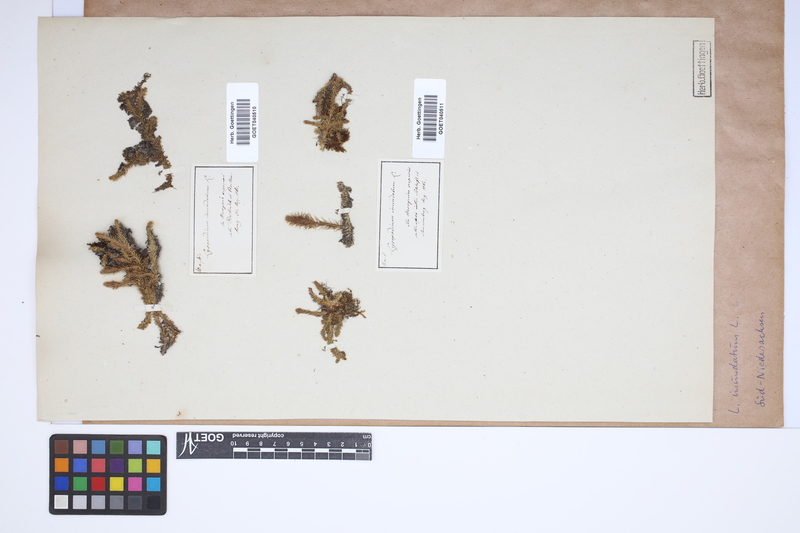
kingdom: Plantae
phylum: Tracheophyta
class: Lycopodiopsida
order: Lycopodiales
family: Lycopodiaceae
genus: Lycopodiella
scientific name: Lycopodiella inundata
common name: Marsh clubmoss
